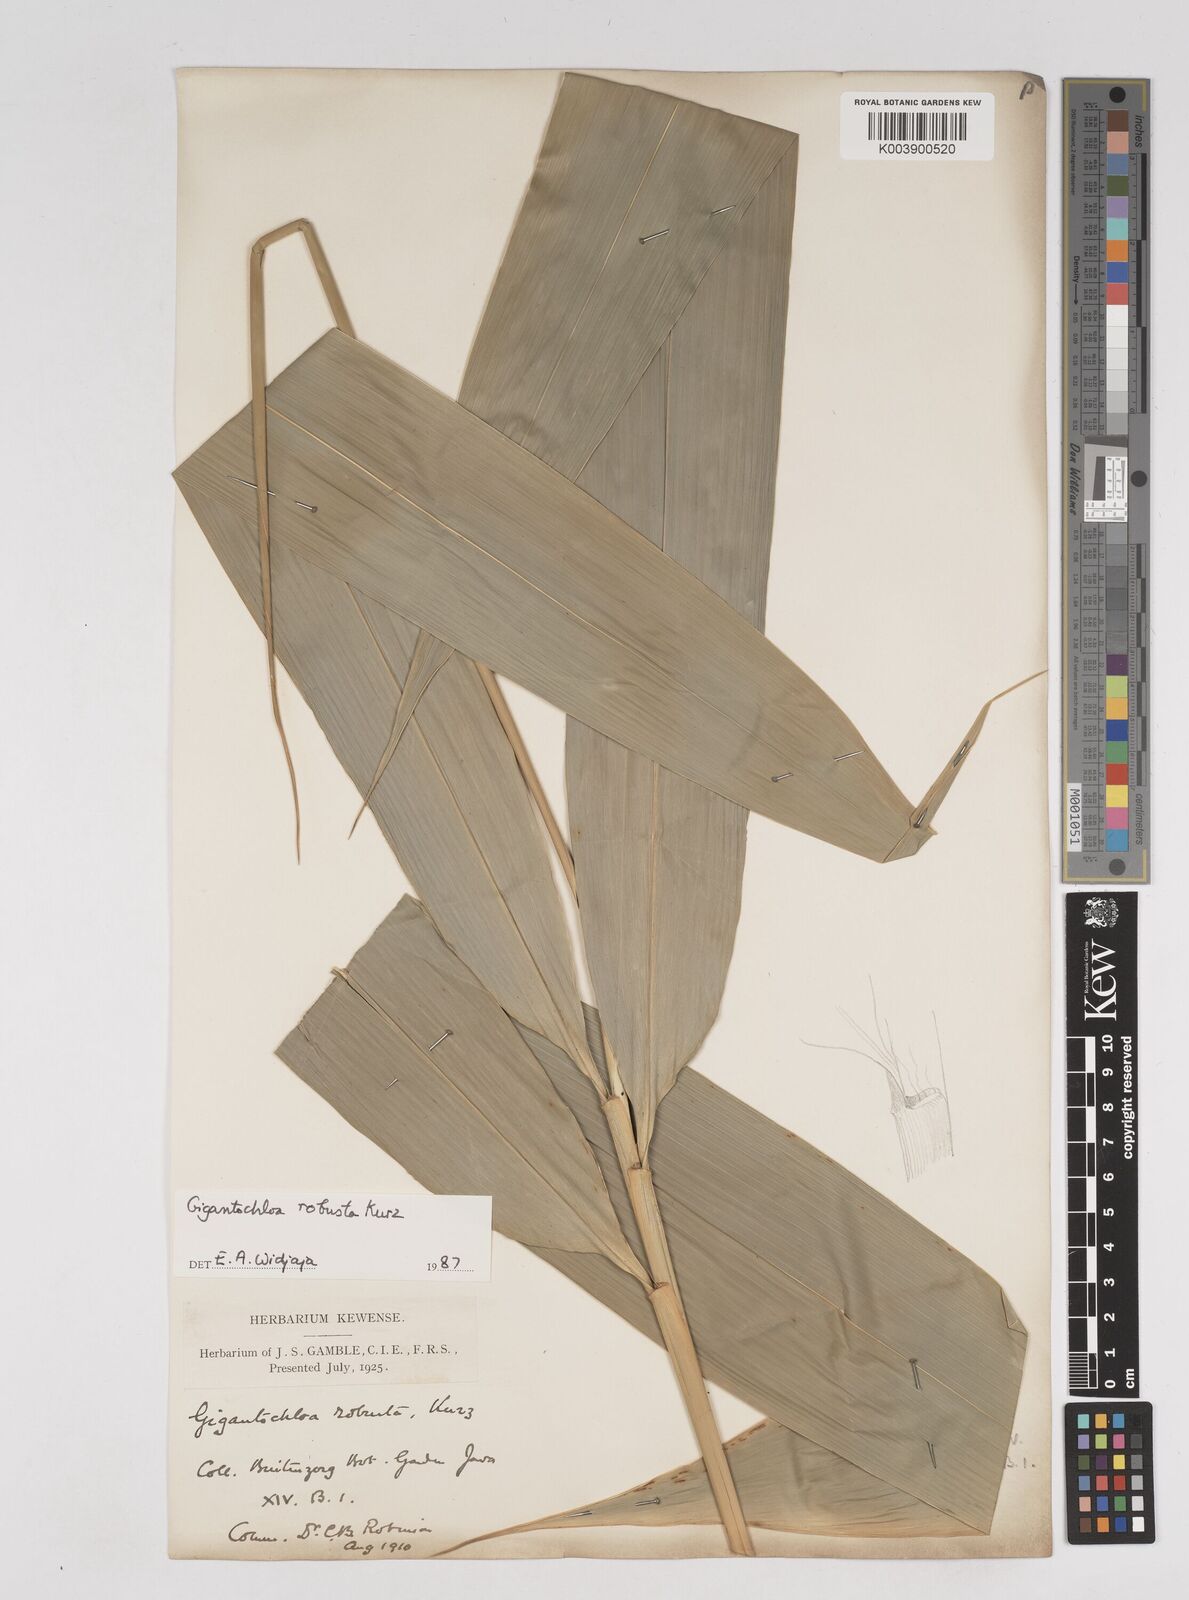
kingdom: Plantae
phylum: Tracheophyta
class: Liliopsida
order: Poales
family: Poaceae
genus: Gigantochloa
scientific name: Gigantochloa robusta
